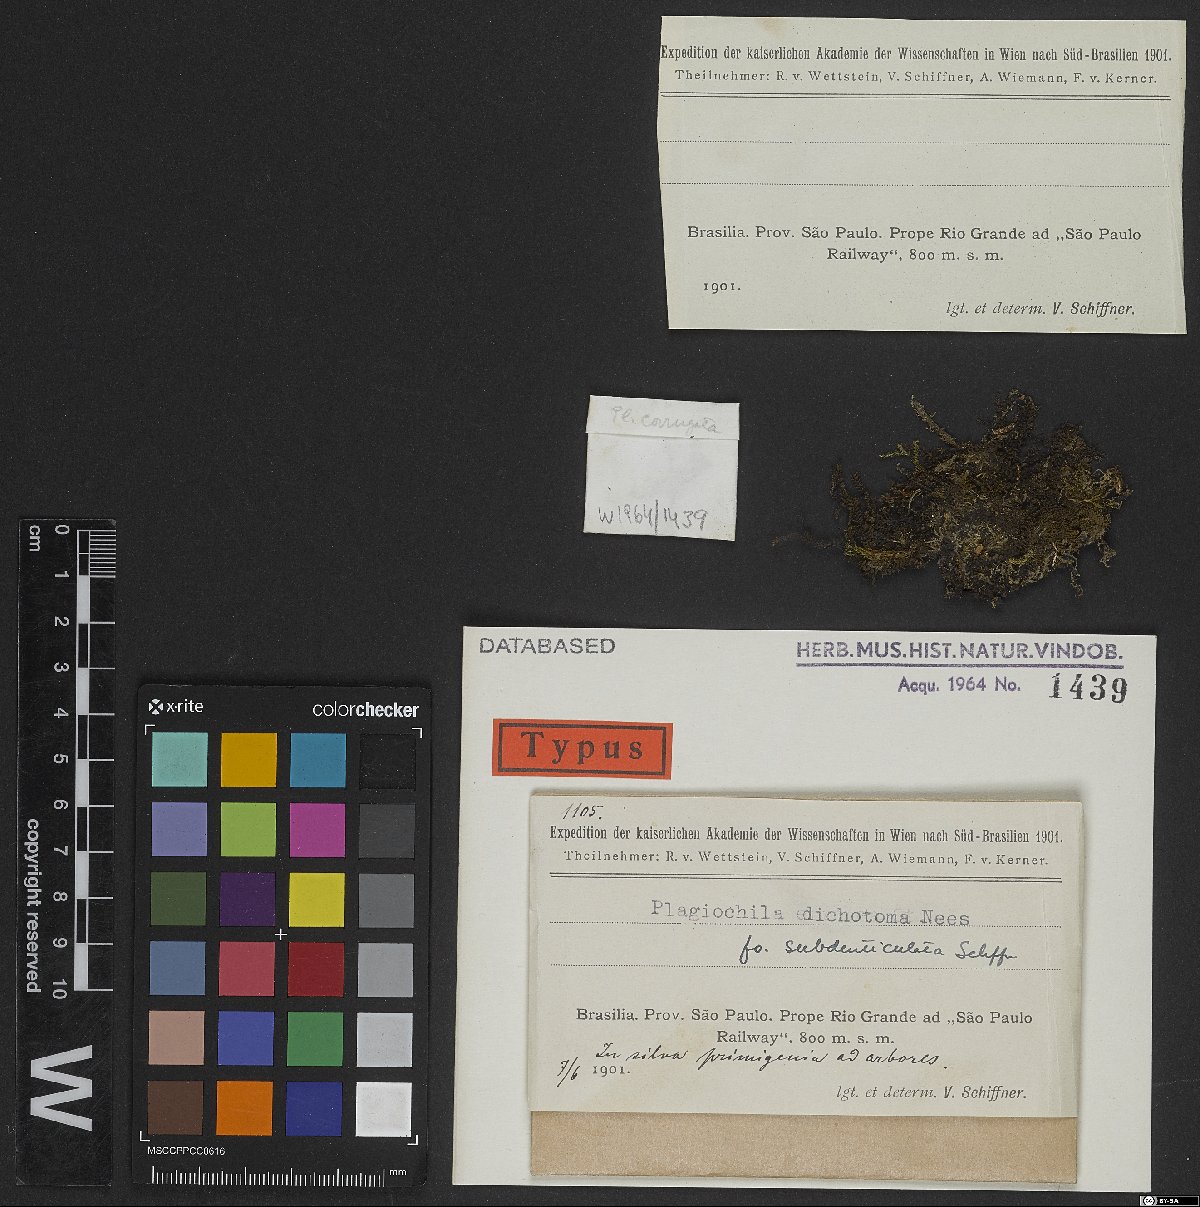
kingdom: Plantae
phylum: Marchantiophyta
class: Jungermanniopsida
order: Jungermanniales
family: Plagiochilaceae
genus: Plagiochila
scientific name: Plagiochila dichotoma
